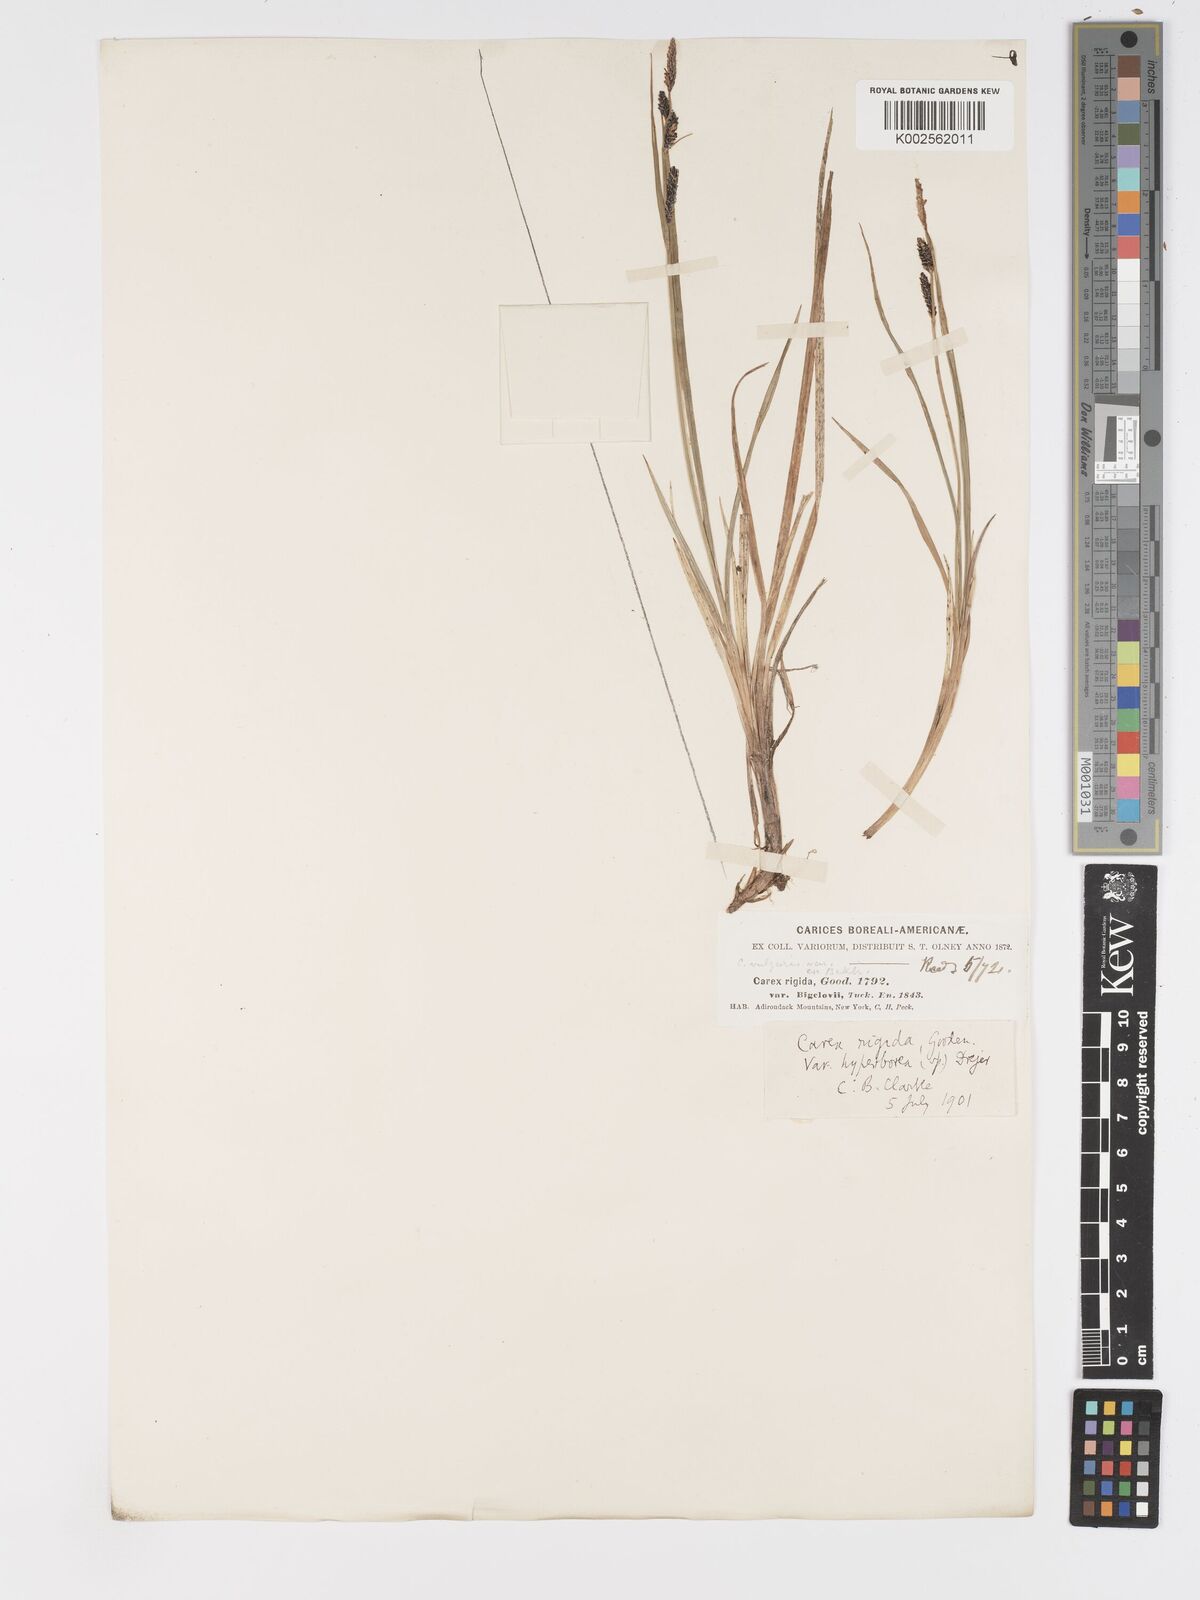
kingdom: Plantae
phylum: Tracheophyta
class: Liliopsida
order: Poales
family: Cyperaceae
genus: Carex
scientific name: Carex bigelowii
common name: Stiff sedge
